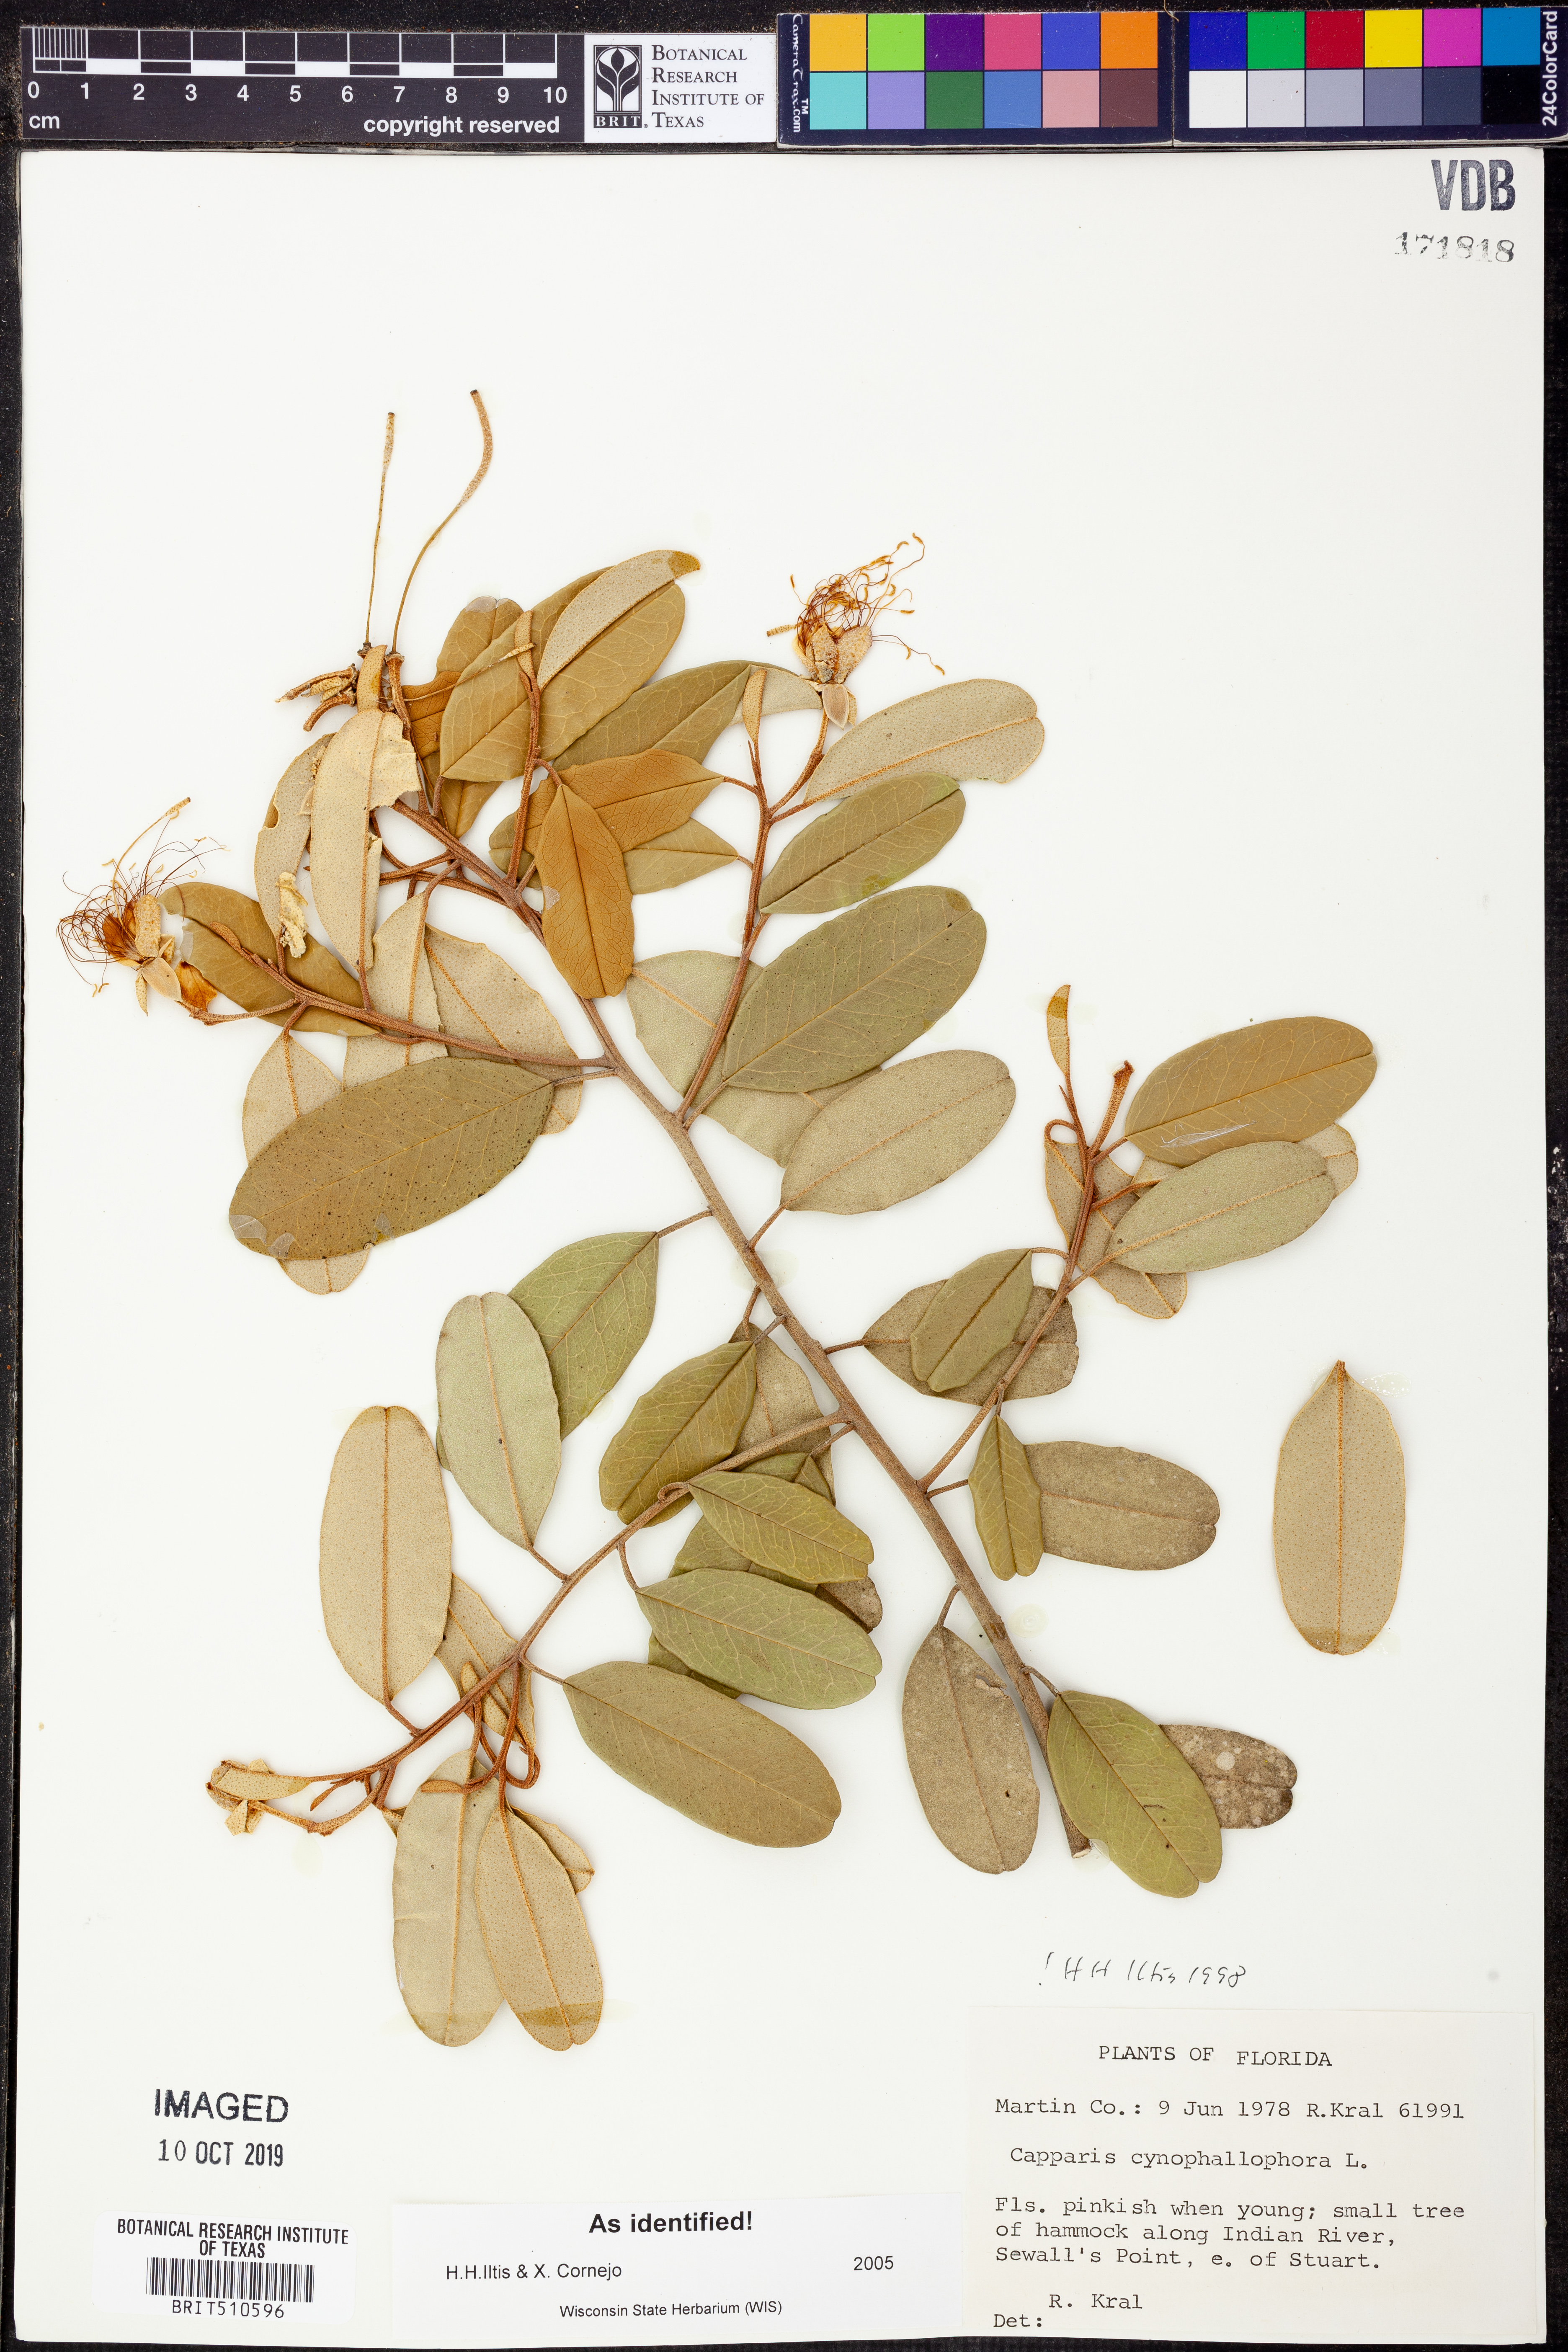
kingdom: Plantae
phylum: Tracheophyta
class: Magnoliopsida
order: Brassicales
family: Capparaceae
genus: Quadrella
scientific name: Quadrella cynophallophora
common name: Black willow
